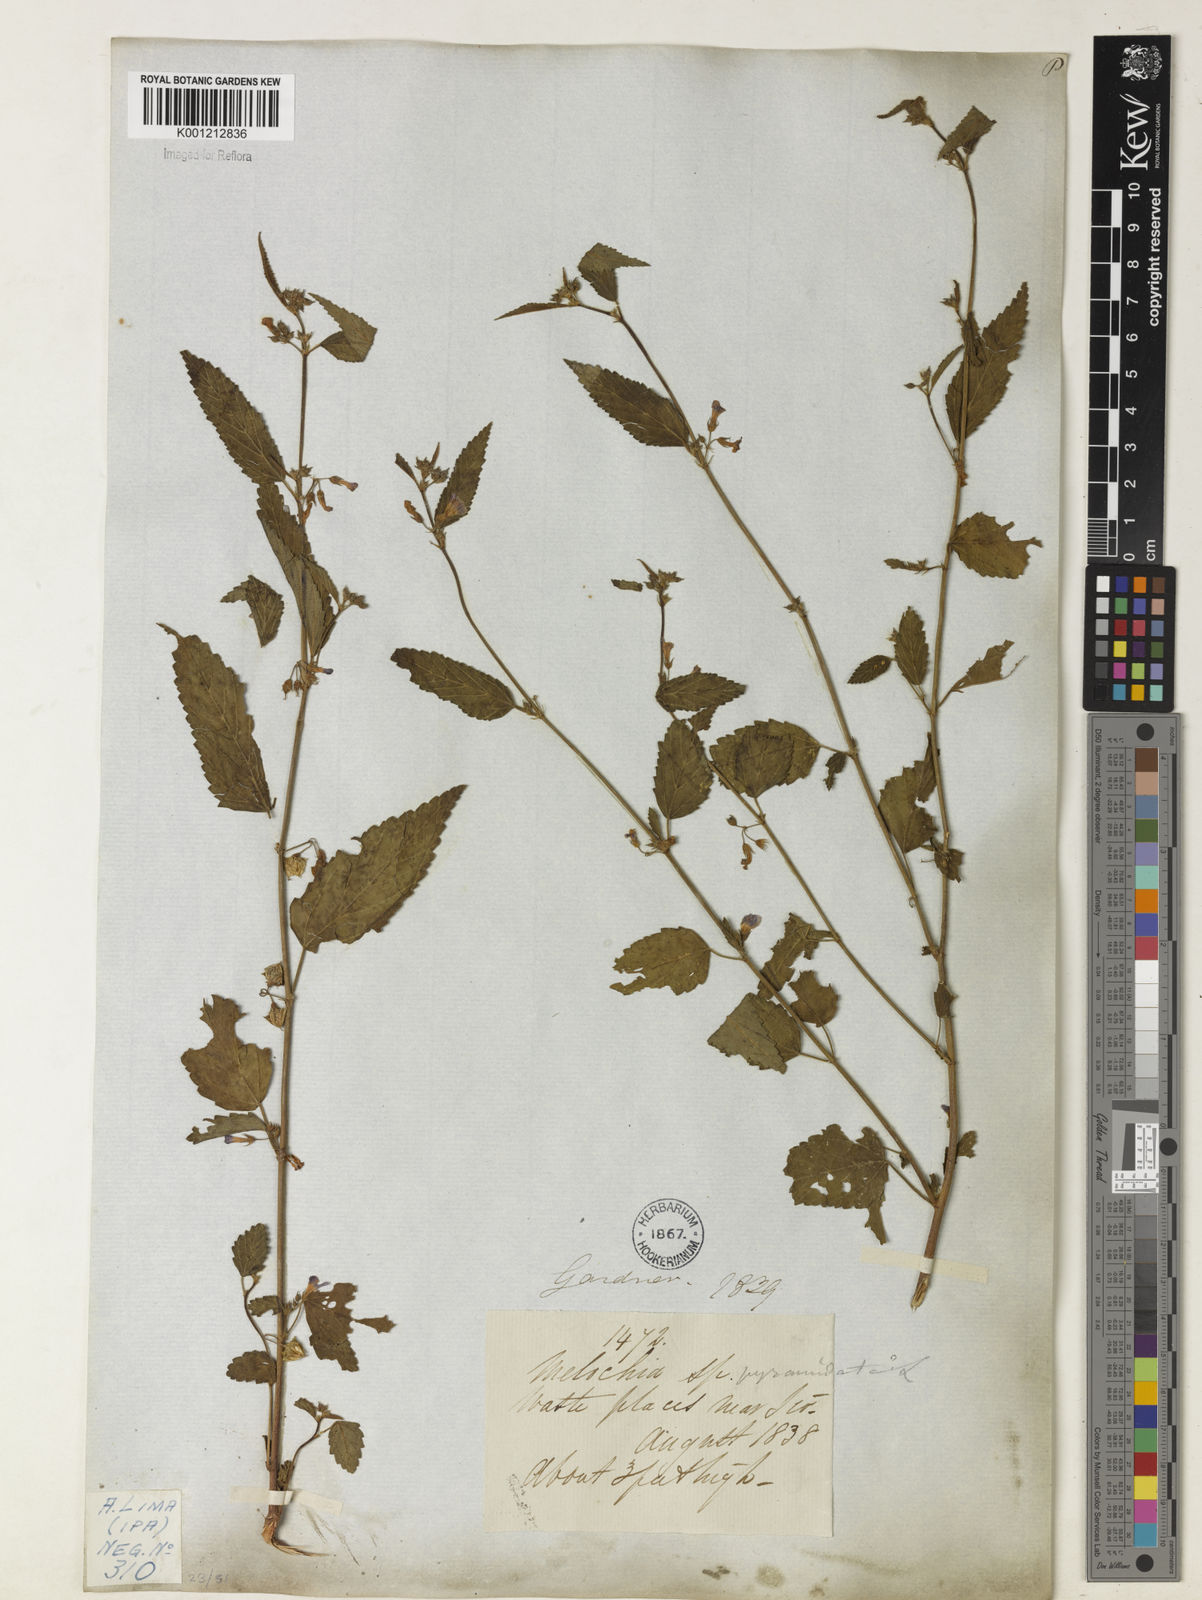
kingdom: Plantae
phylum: Tracheophyta
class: Magnoliopsida
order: Malvales
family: Malvaceae
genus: Melochia
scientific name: Melochia pyramidata
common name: Pyramidflower
